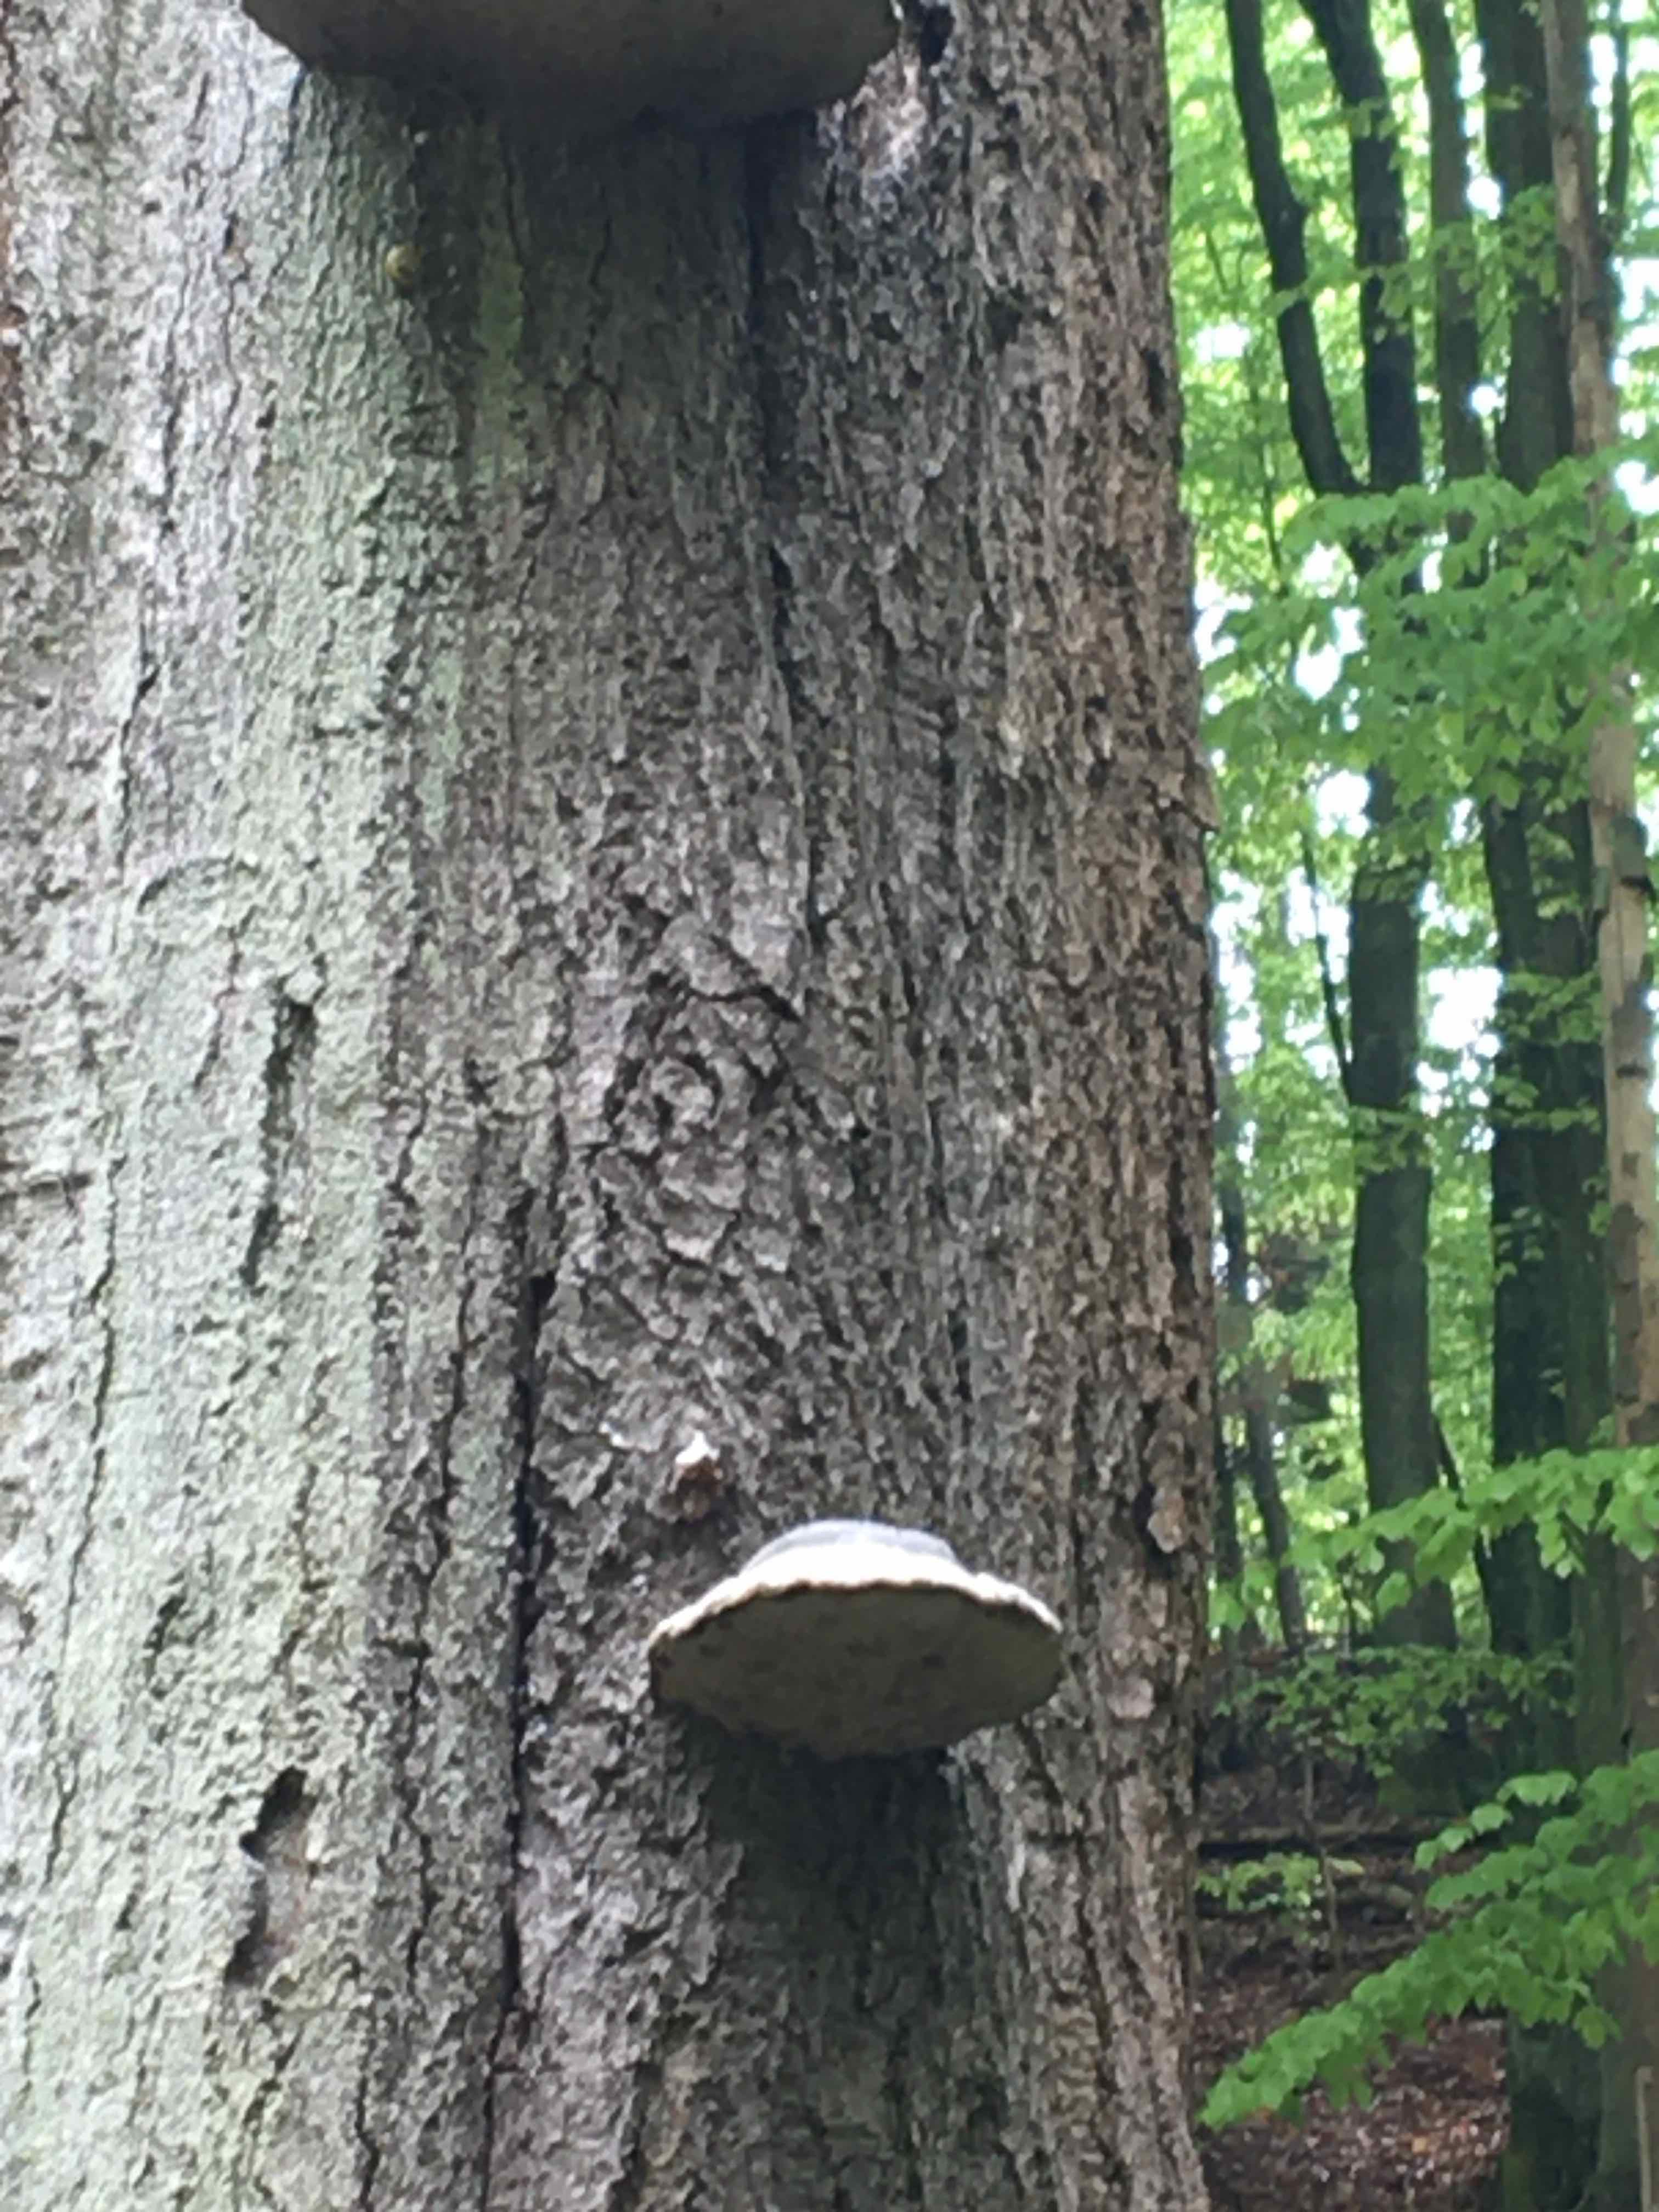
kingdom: Fungi
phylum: Basidiomycota
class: Agaricomycetes
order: Polyporales
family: Polyporaceae
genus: Fomes
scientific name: Fomes fomentarius
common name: tøndersvamp
